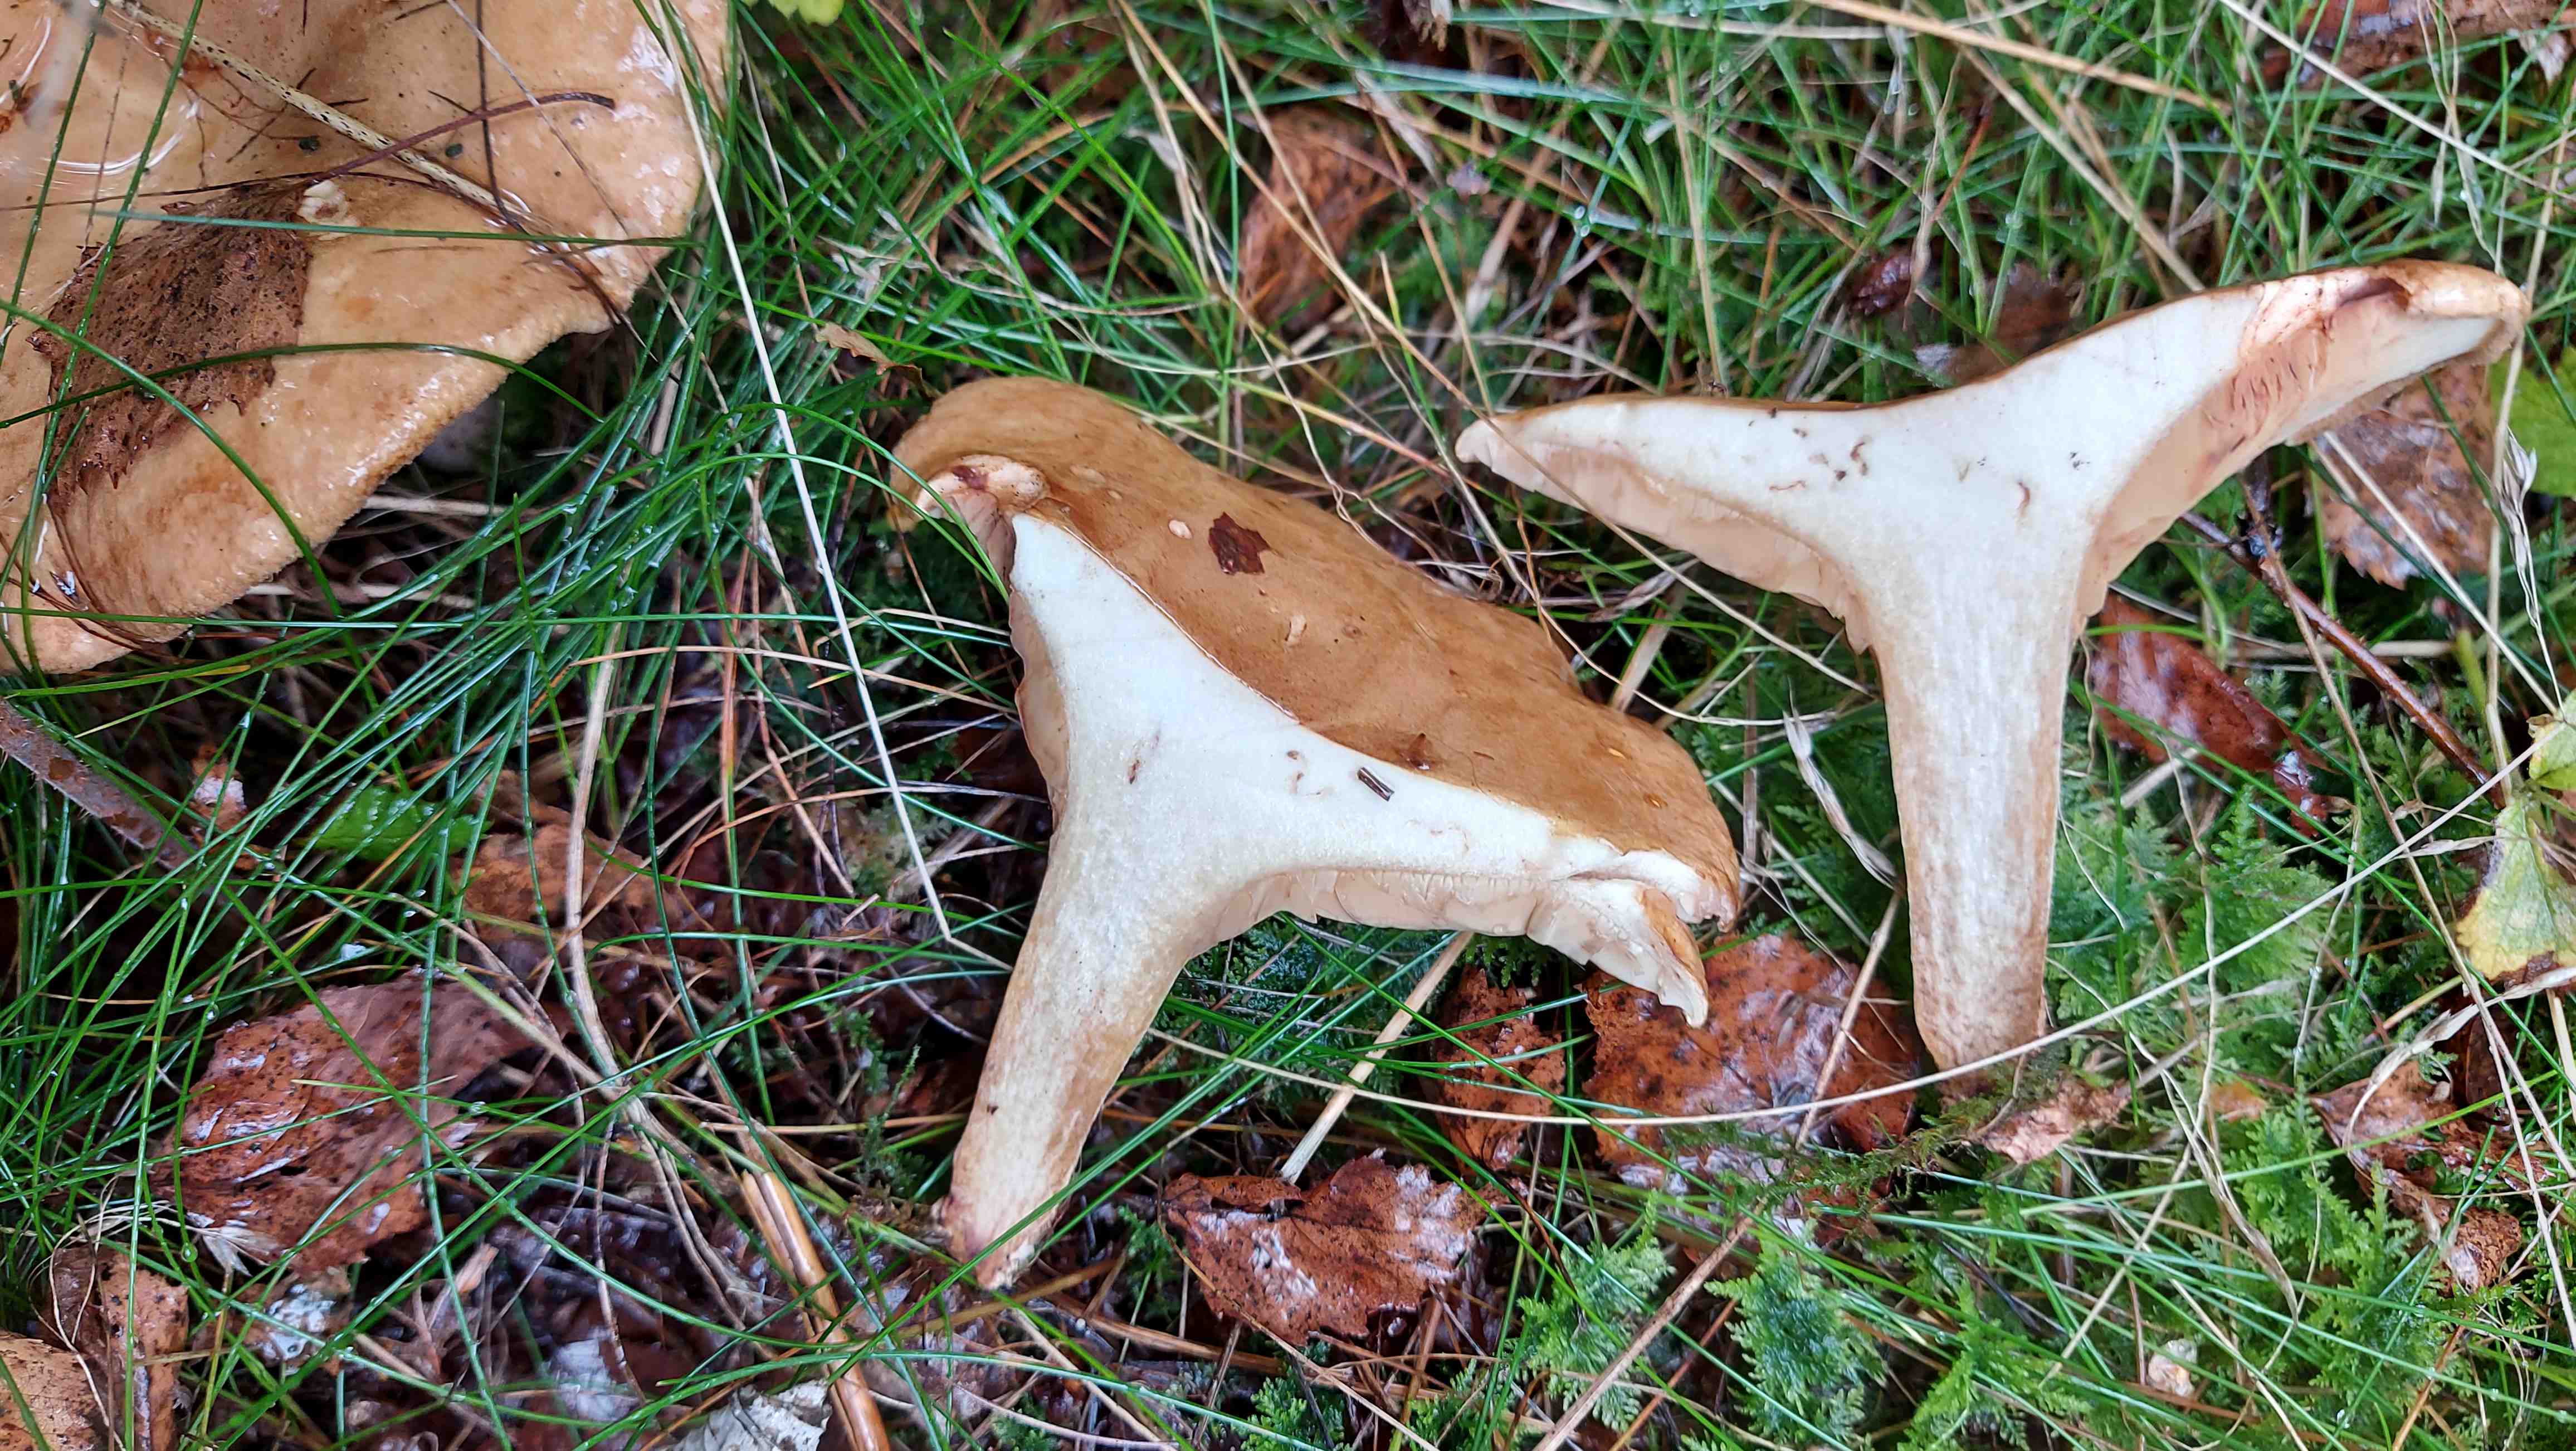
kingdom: Fungi
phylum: Basidiomycota
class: Agaricomycetes
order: Boletales
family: Paxillaceae
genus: Paxillus
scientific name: Paxillus involutus
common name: almindelig netbladhat
